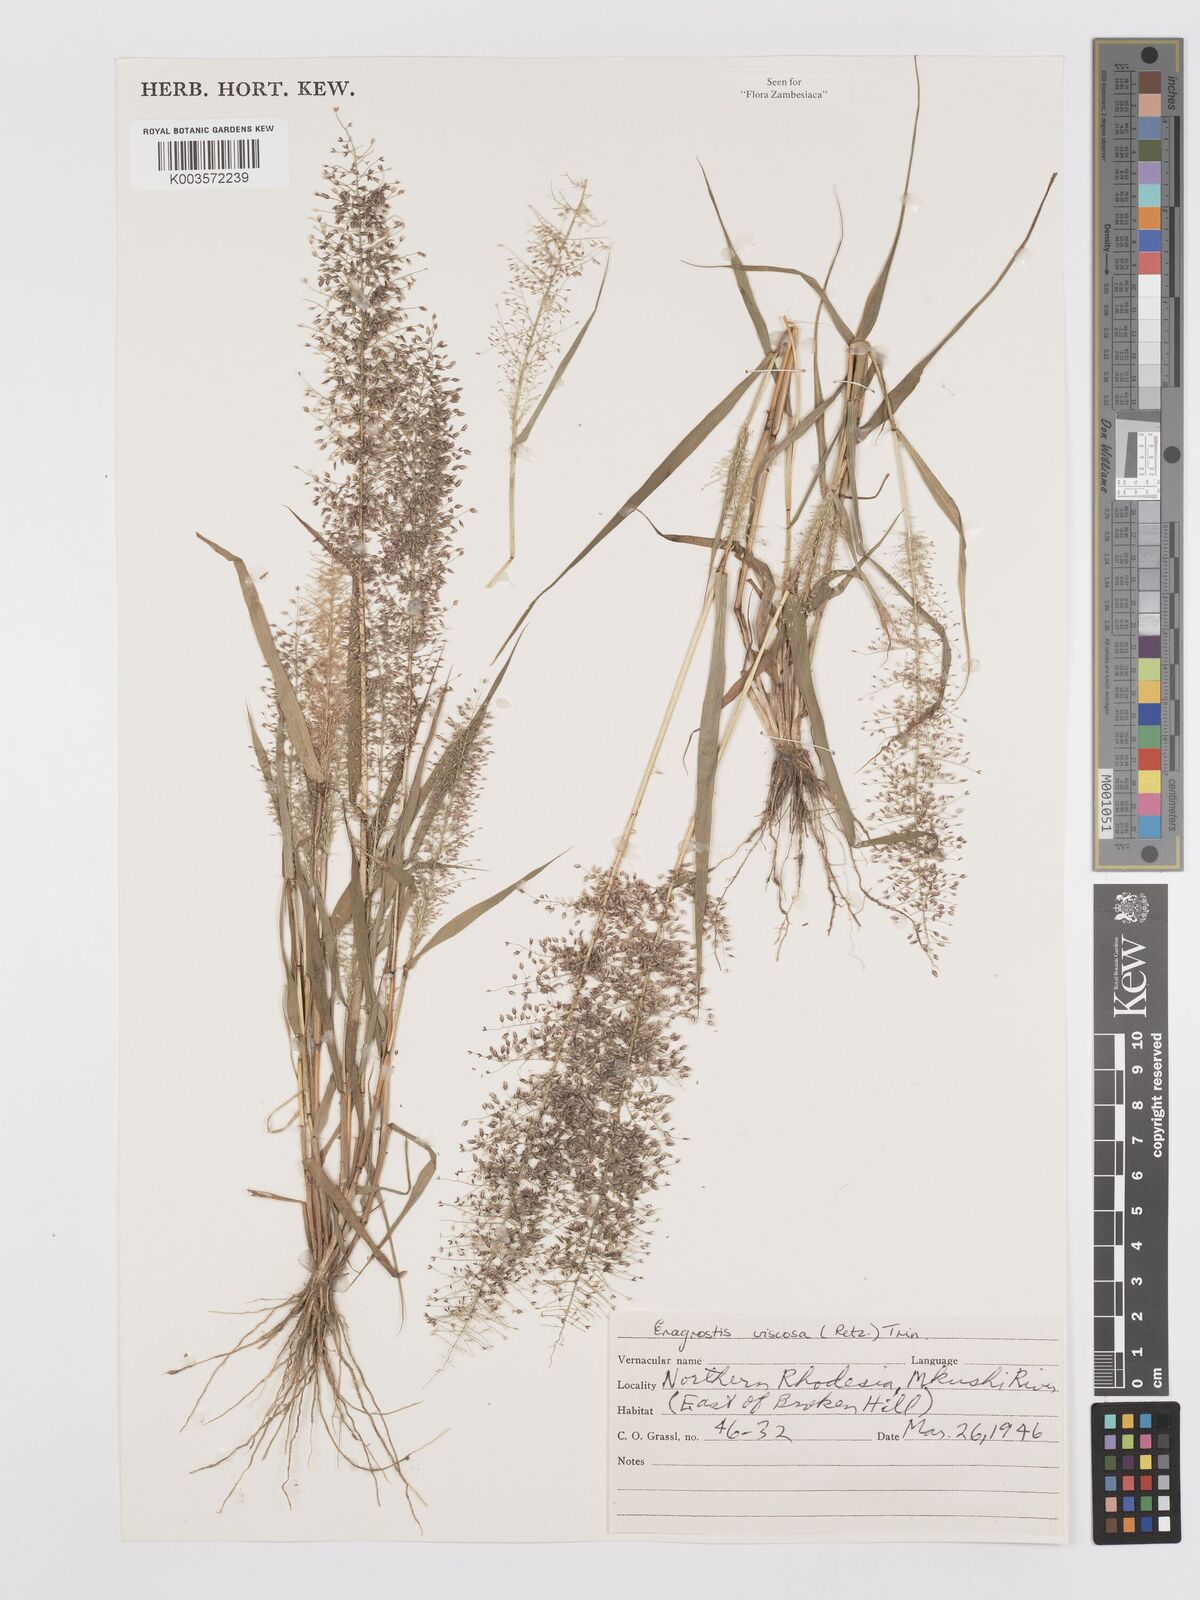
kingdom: Plantae
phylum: Tracheophyta
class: Liliopsida
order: Poales
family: Poaceae
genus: Eragrostis
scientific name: Eragrostis
